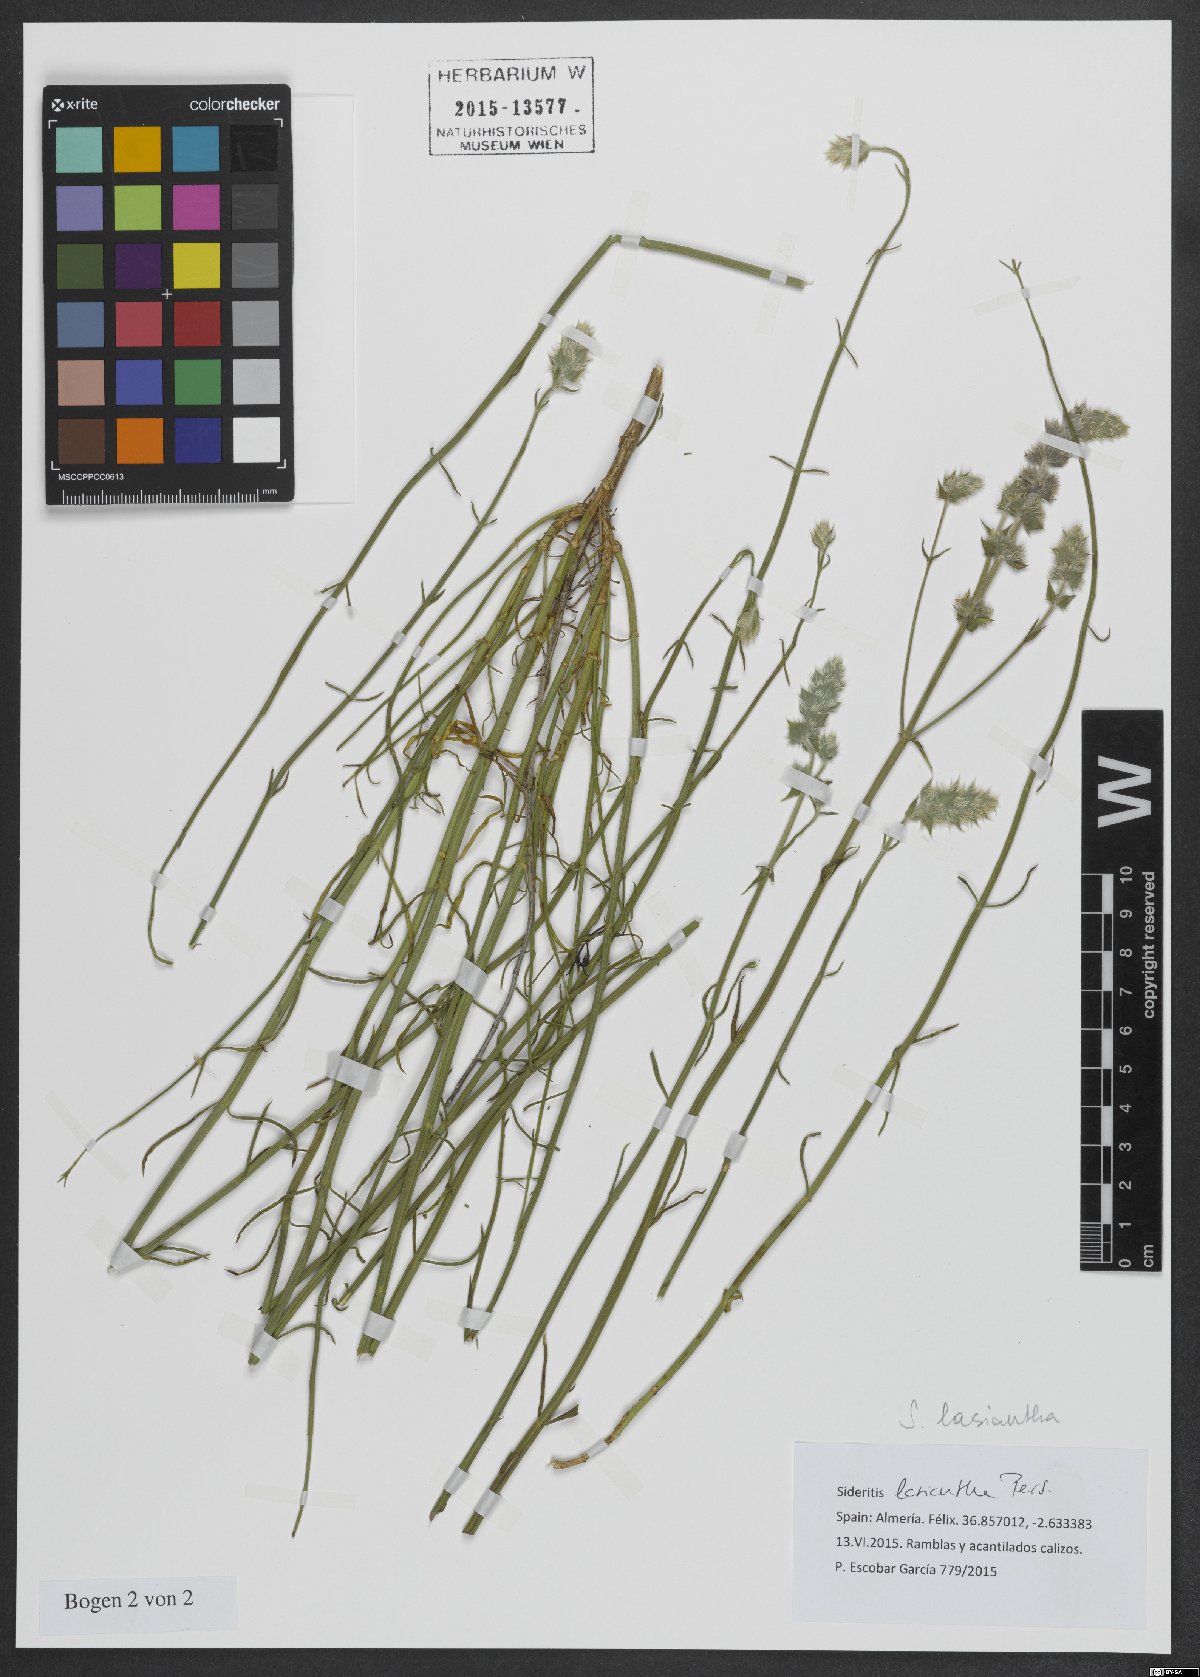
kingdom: Plantae
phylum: Tracheophyta
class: Magnoliopsida
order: Lamiales
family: Lamiaceae
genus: Sideritis
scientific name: Sideritis lasiantha
